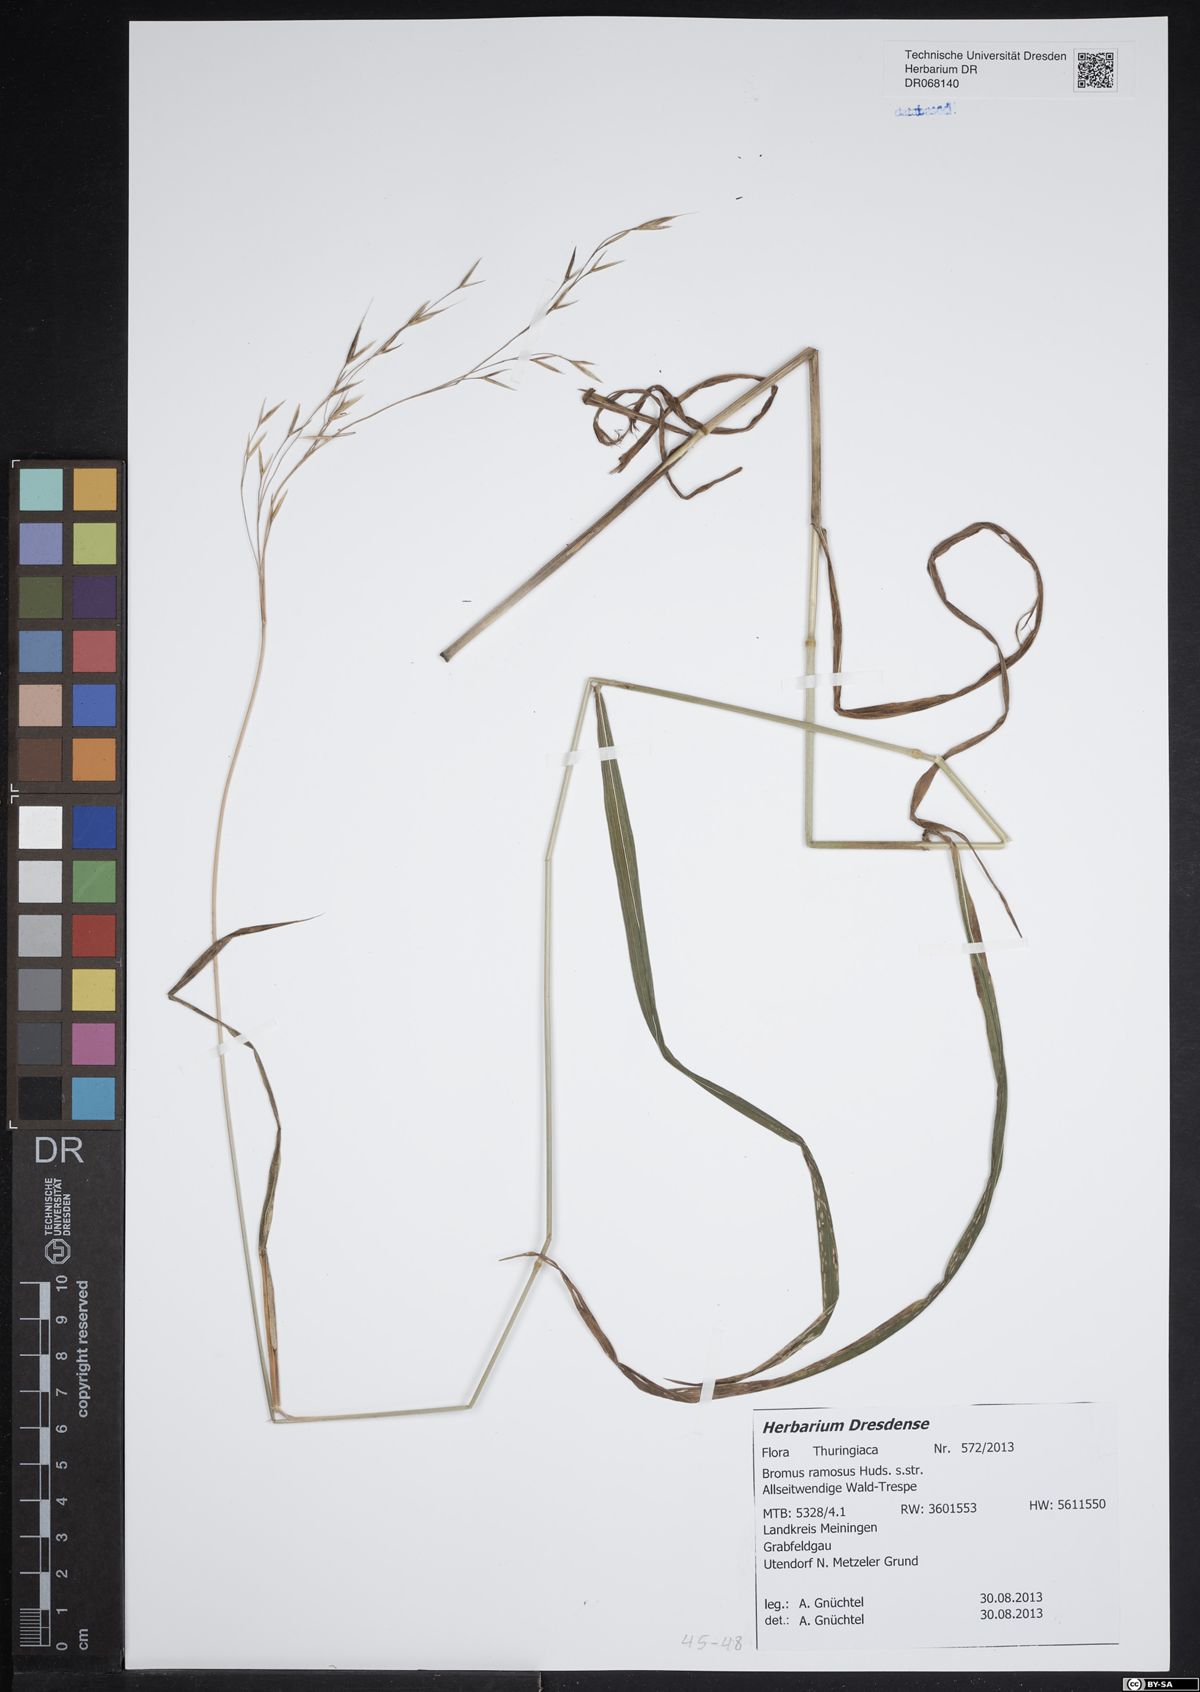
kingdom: Plantae
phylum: Tracheophyta
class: Liliopsida
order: Poales
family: Poaceae
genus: Bromus
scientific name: Bromus ramosus
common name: Hairy brome
